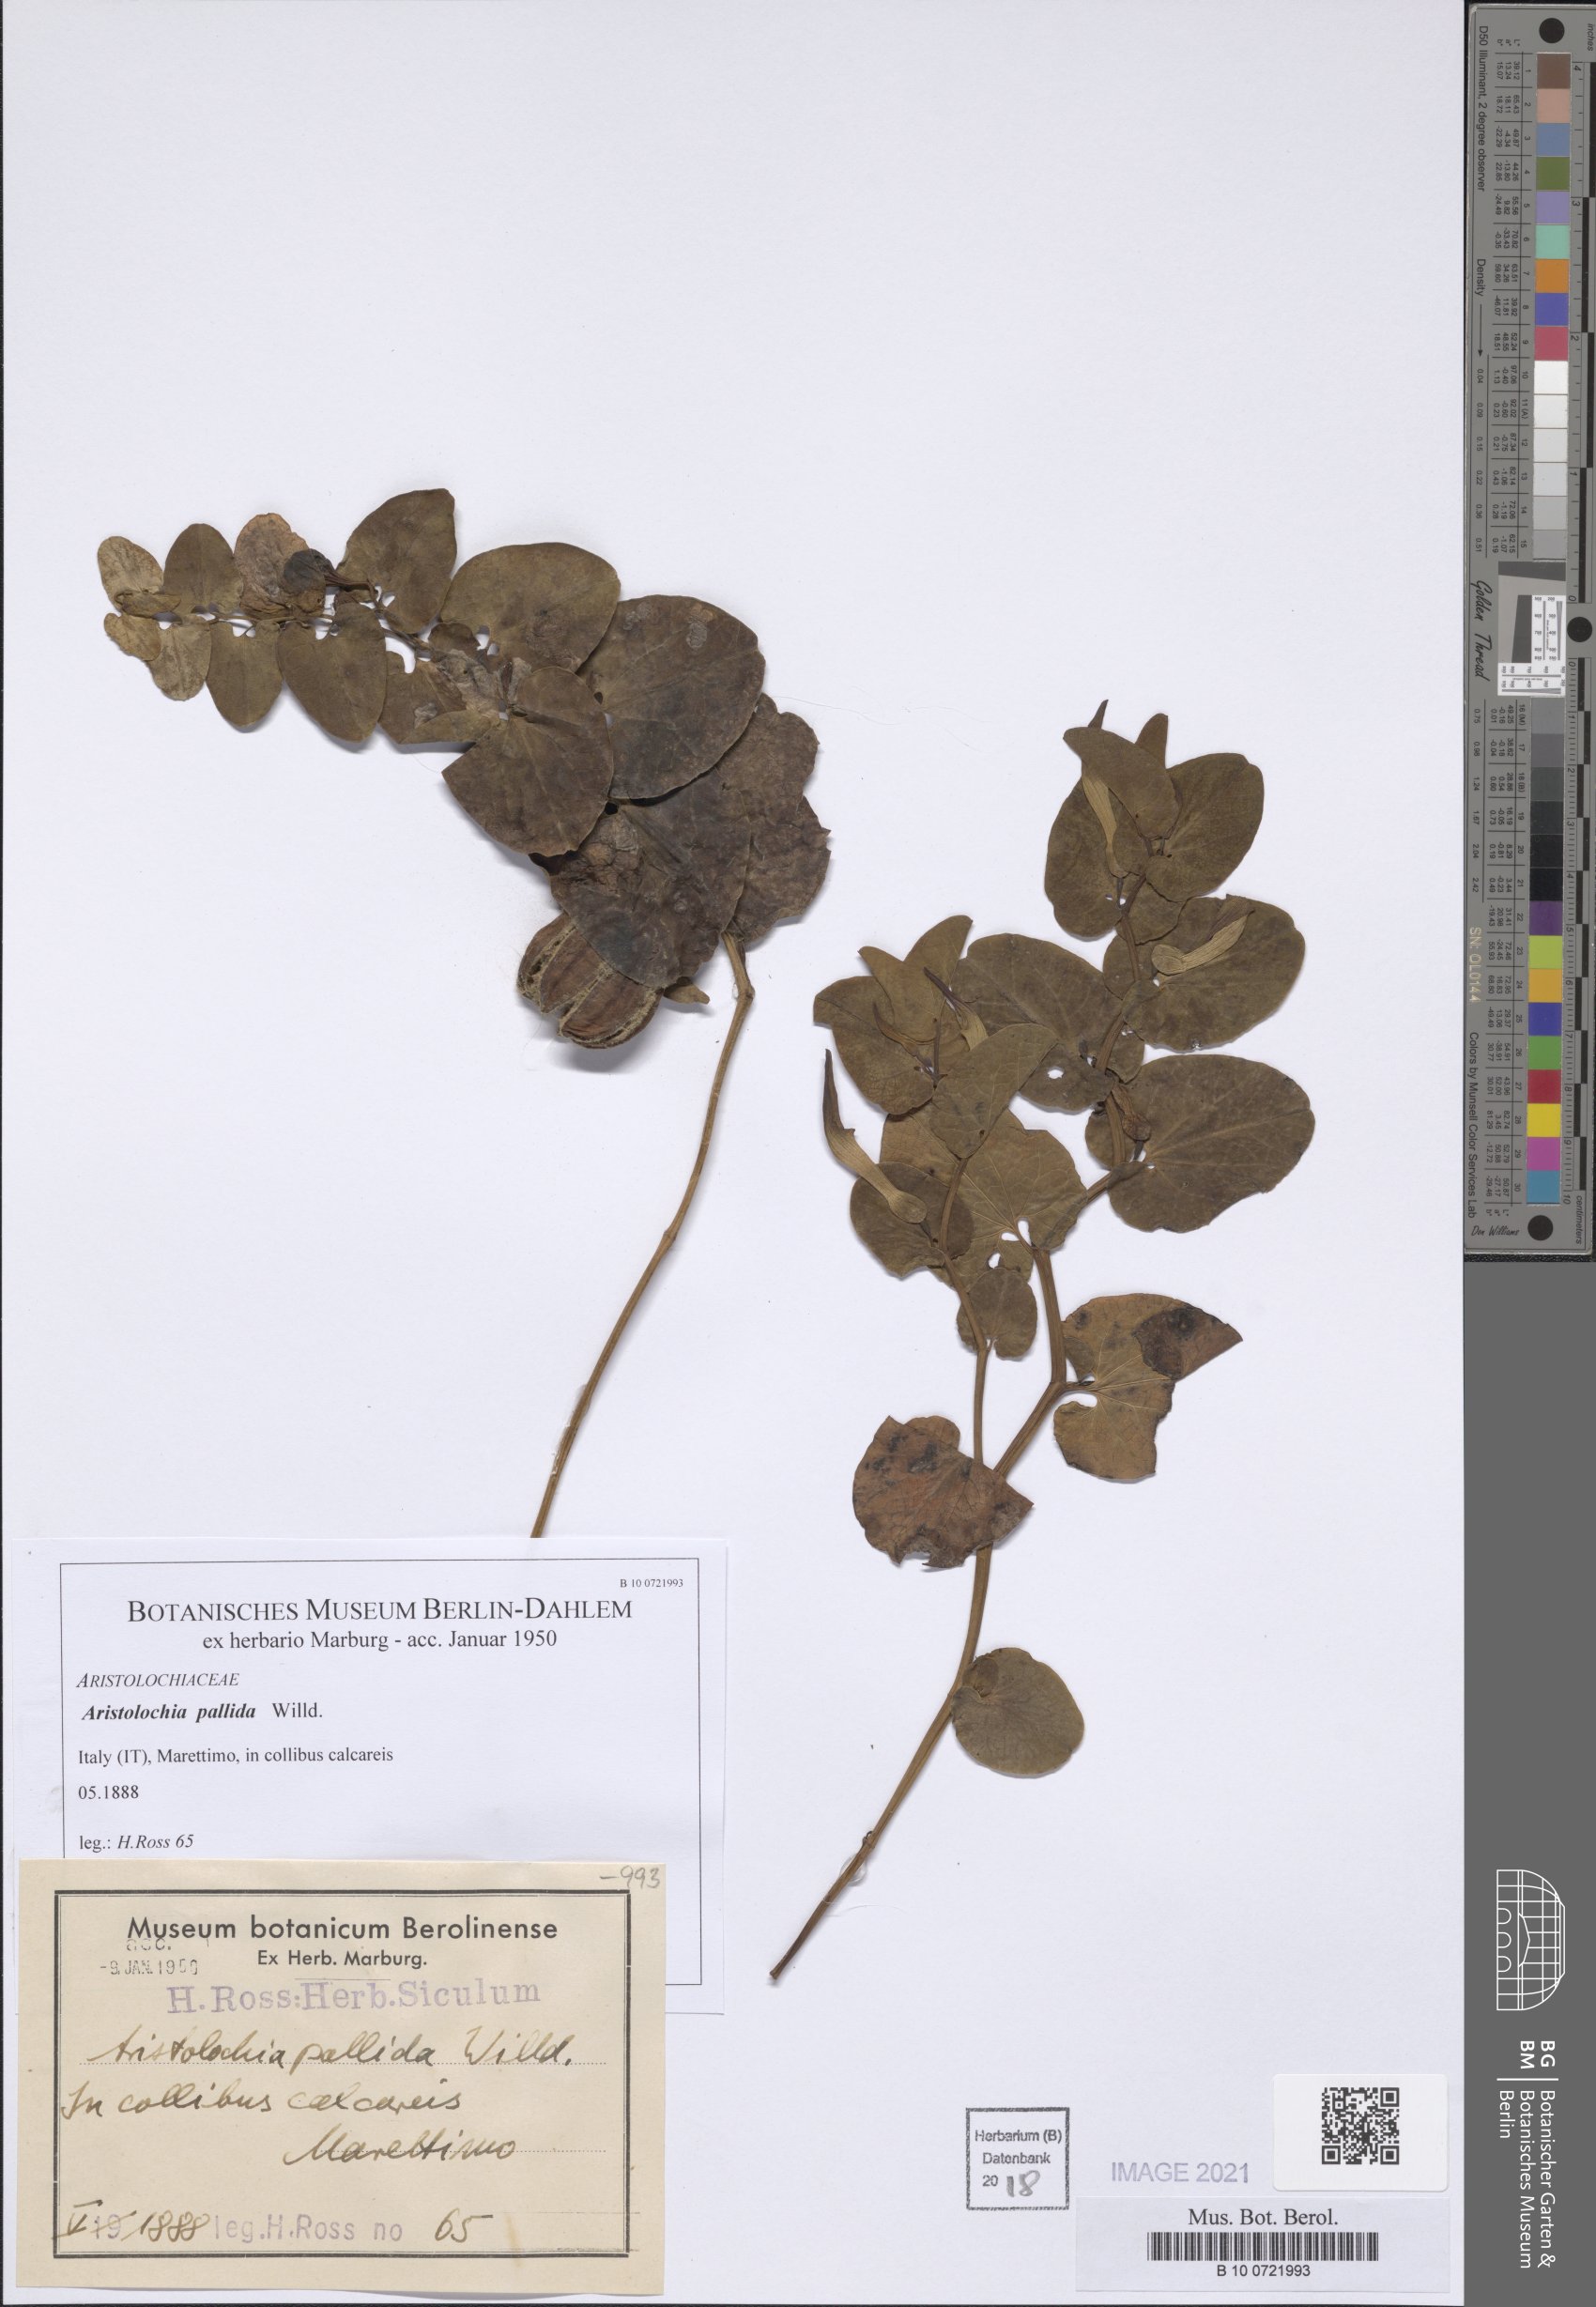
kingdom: Plantae
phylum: Tracheophyta
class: Magnoliopsida
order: Piperales
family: Aristolochiaceae
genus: Aristolochia
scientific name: Aristolochia pallida
